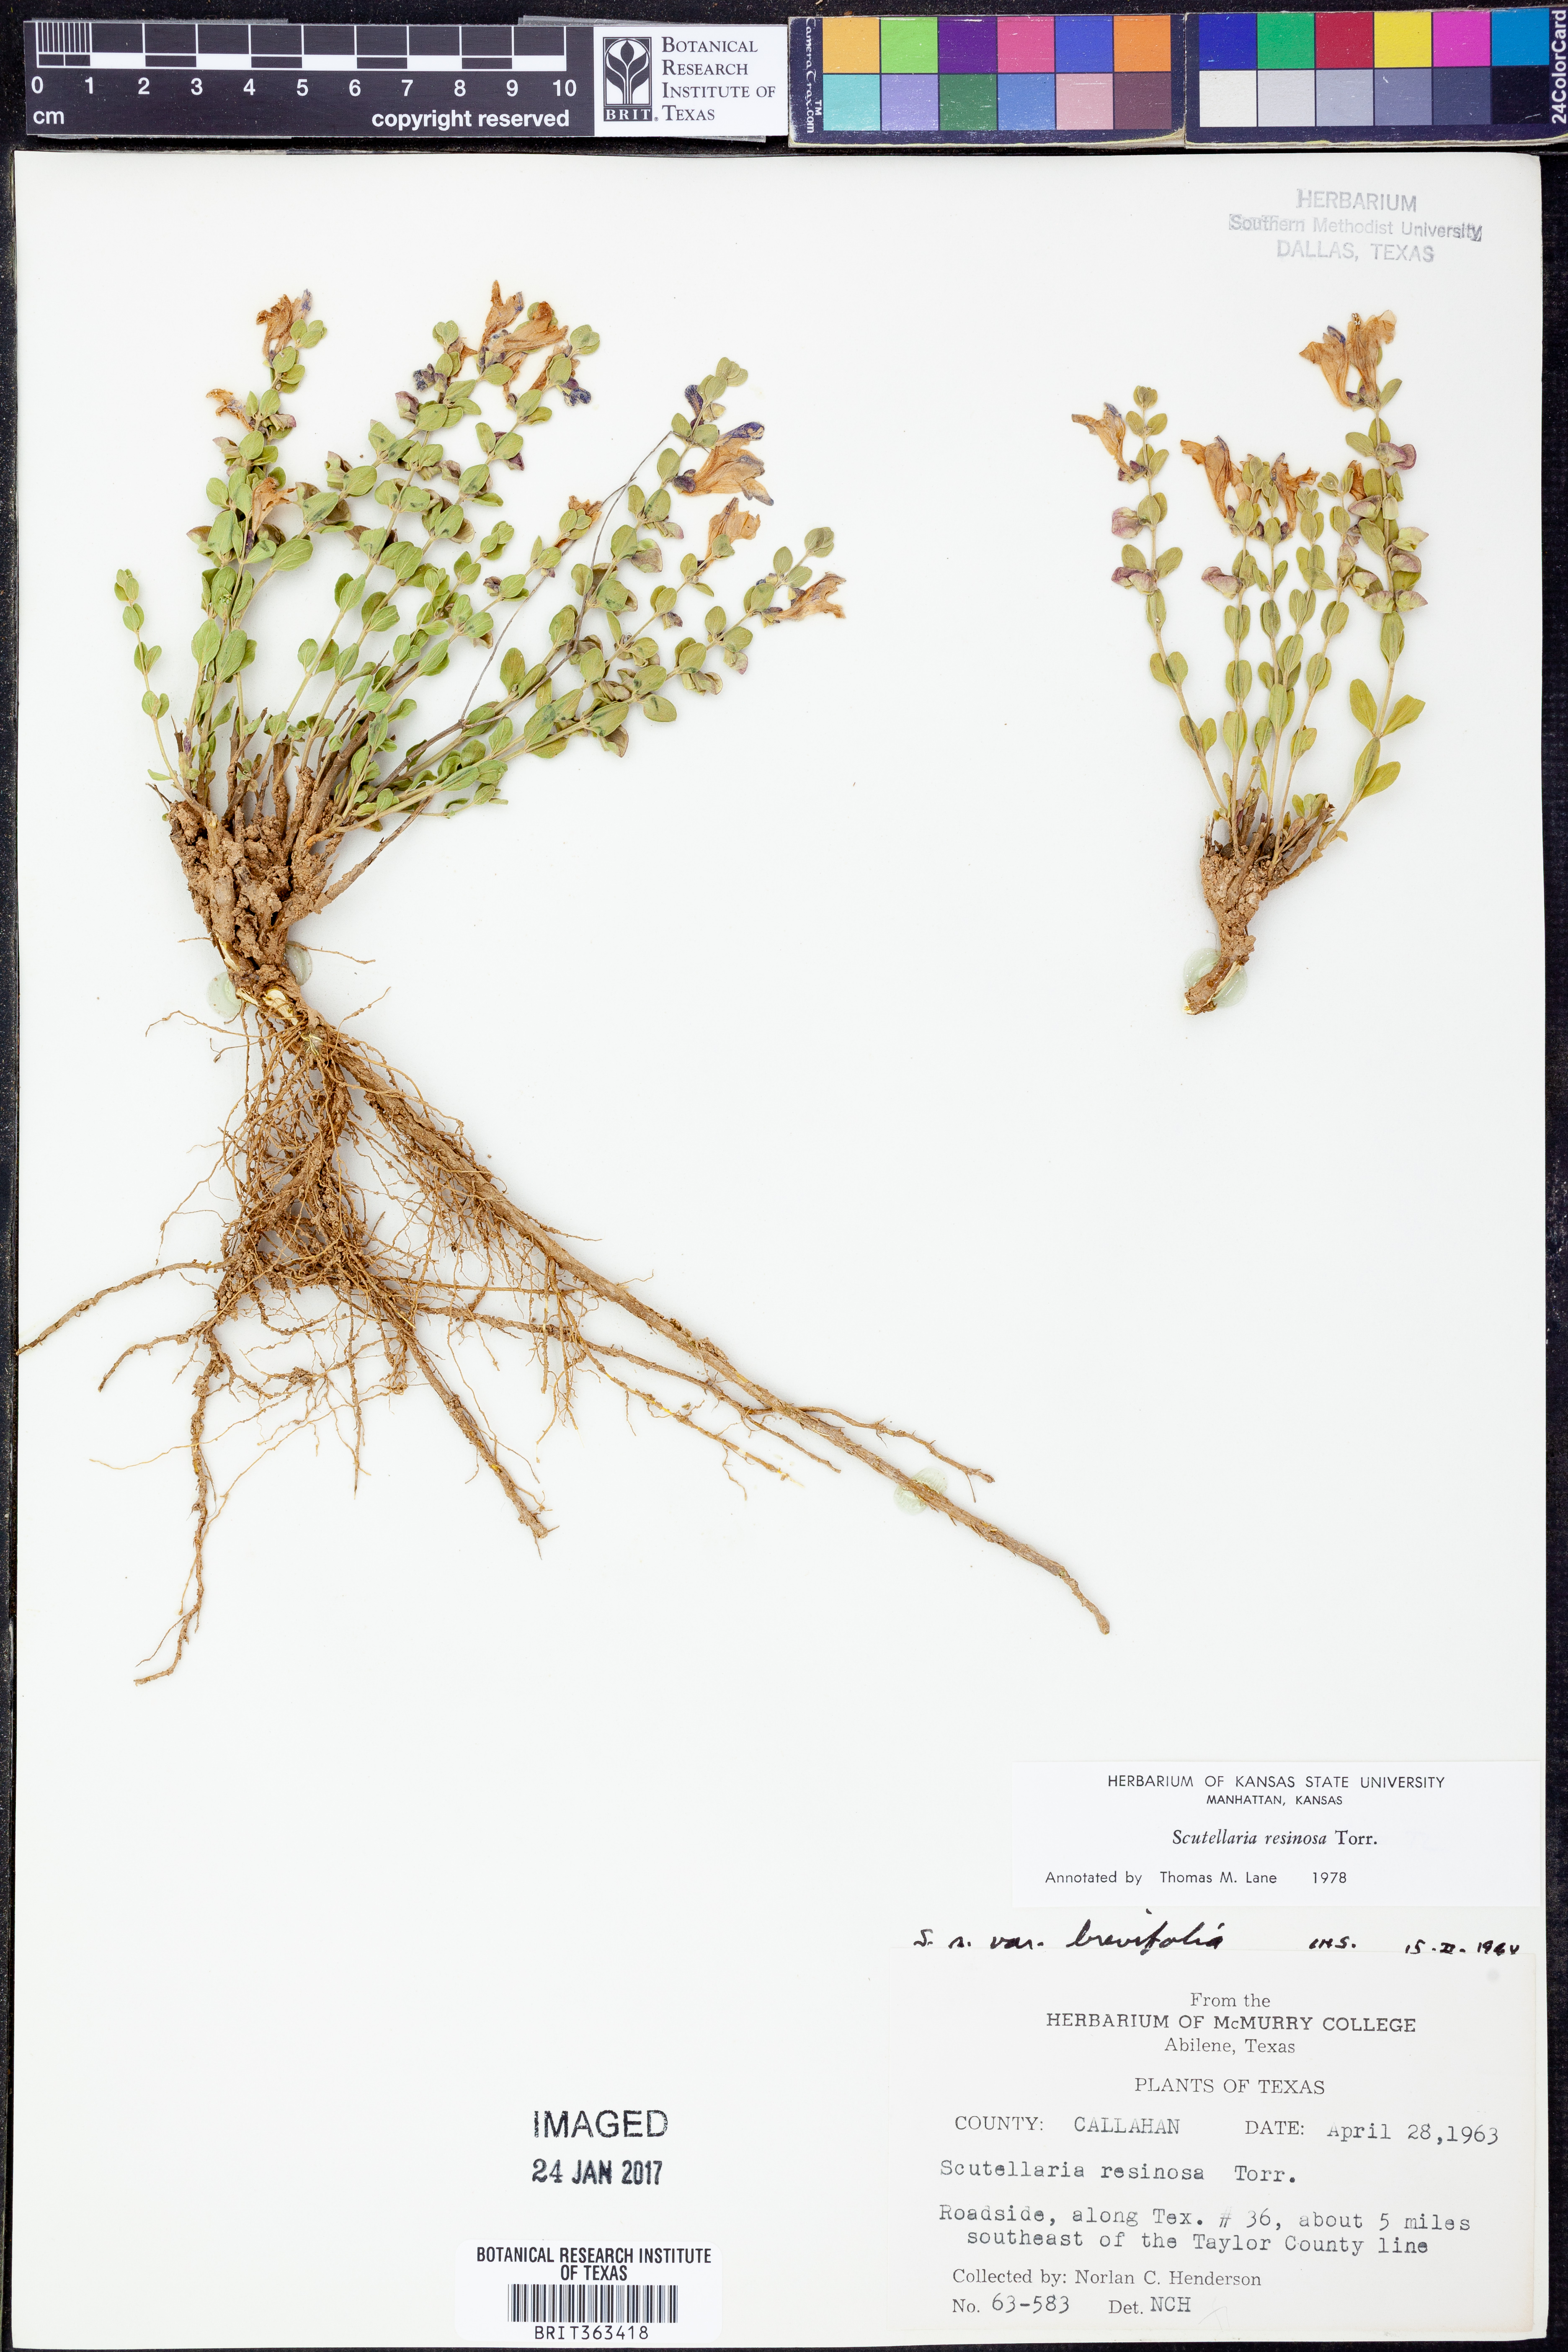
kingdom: Plantae
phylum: Tracheophyta
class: Magnoliopsida
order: Lamiales
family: Lamiaceae
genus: Scutellaria
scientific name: Scutellaria resinosa
